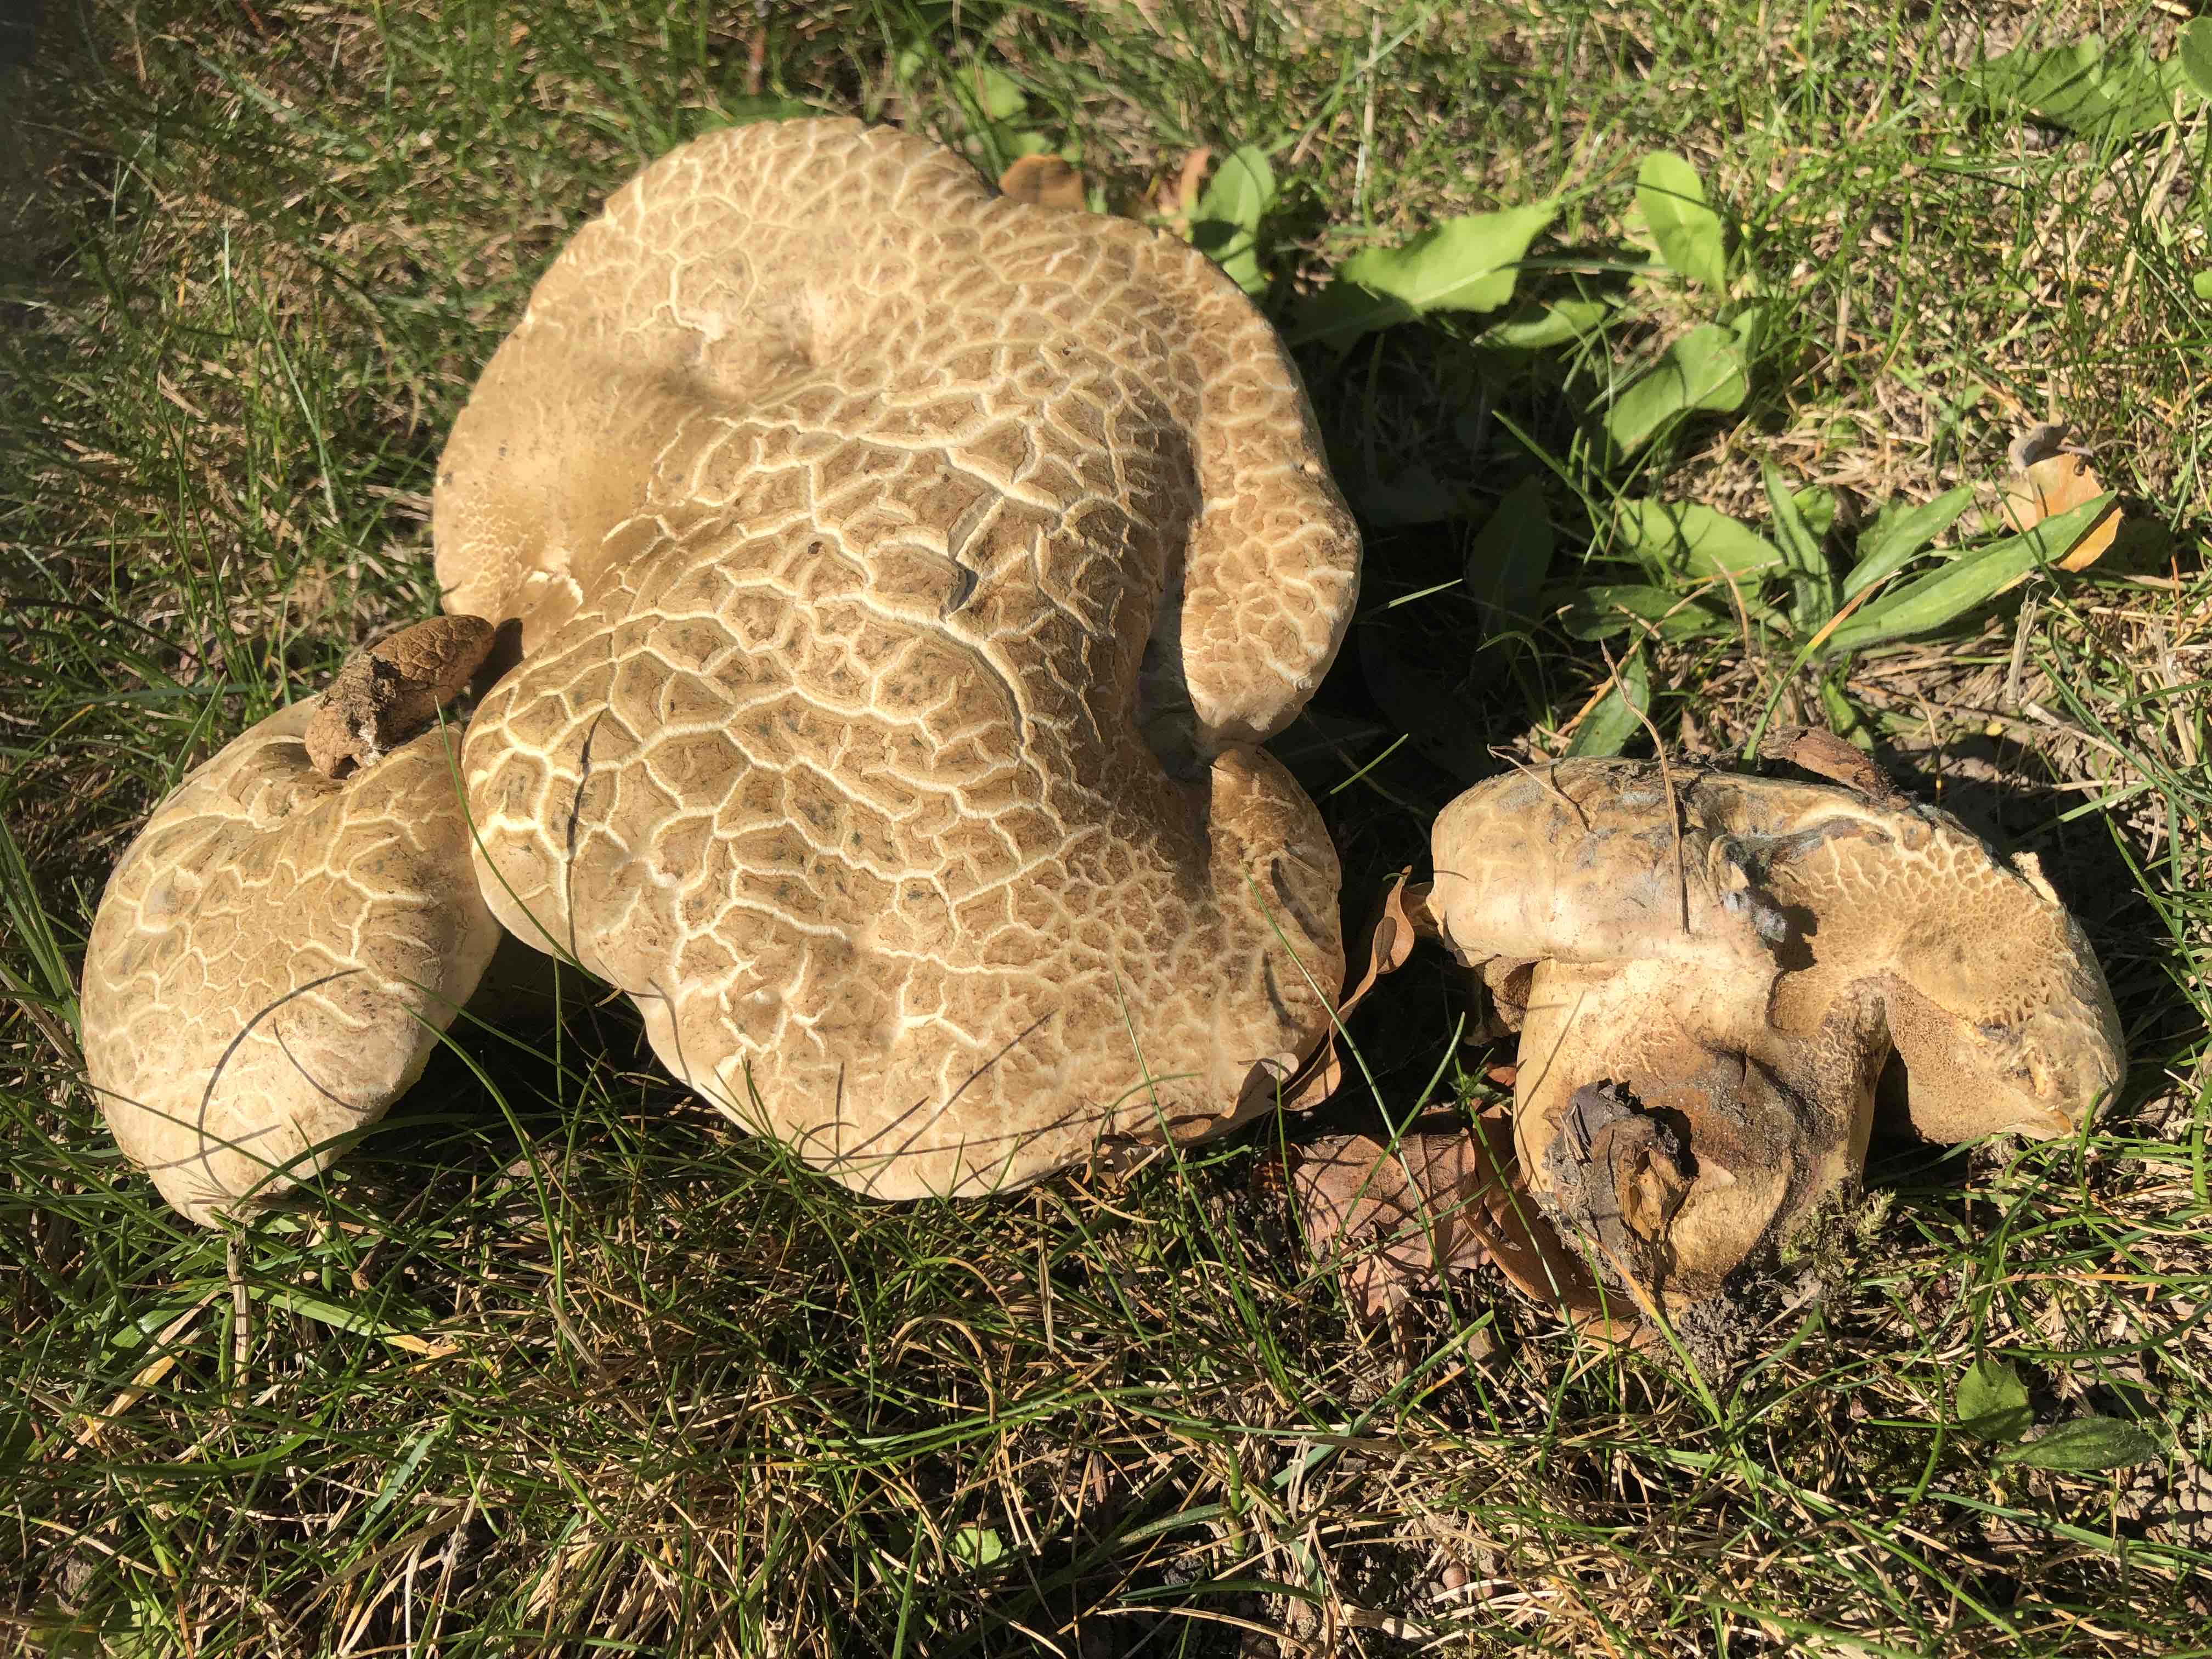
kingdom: Fungi
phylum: Basidiomycota
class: Agaricomycetes
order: Boletales
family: Boletaceae
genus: Caloboletus
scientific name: Caloboletus radicans
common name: rod-rørhat
